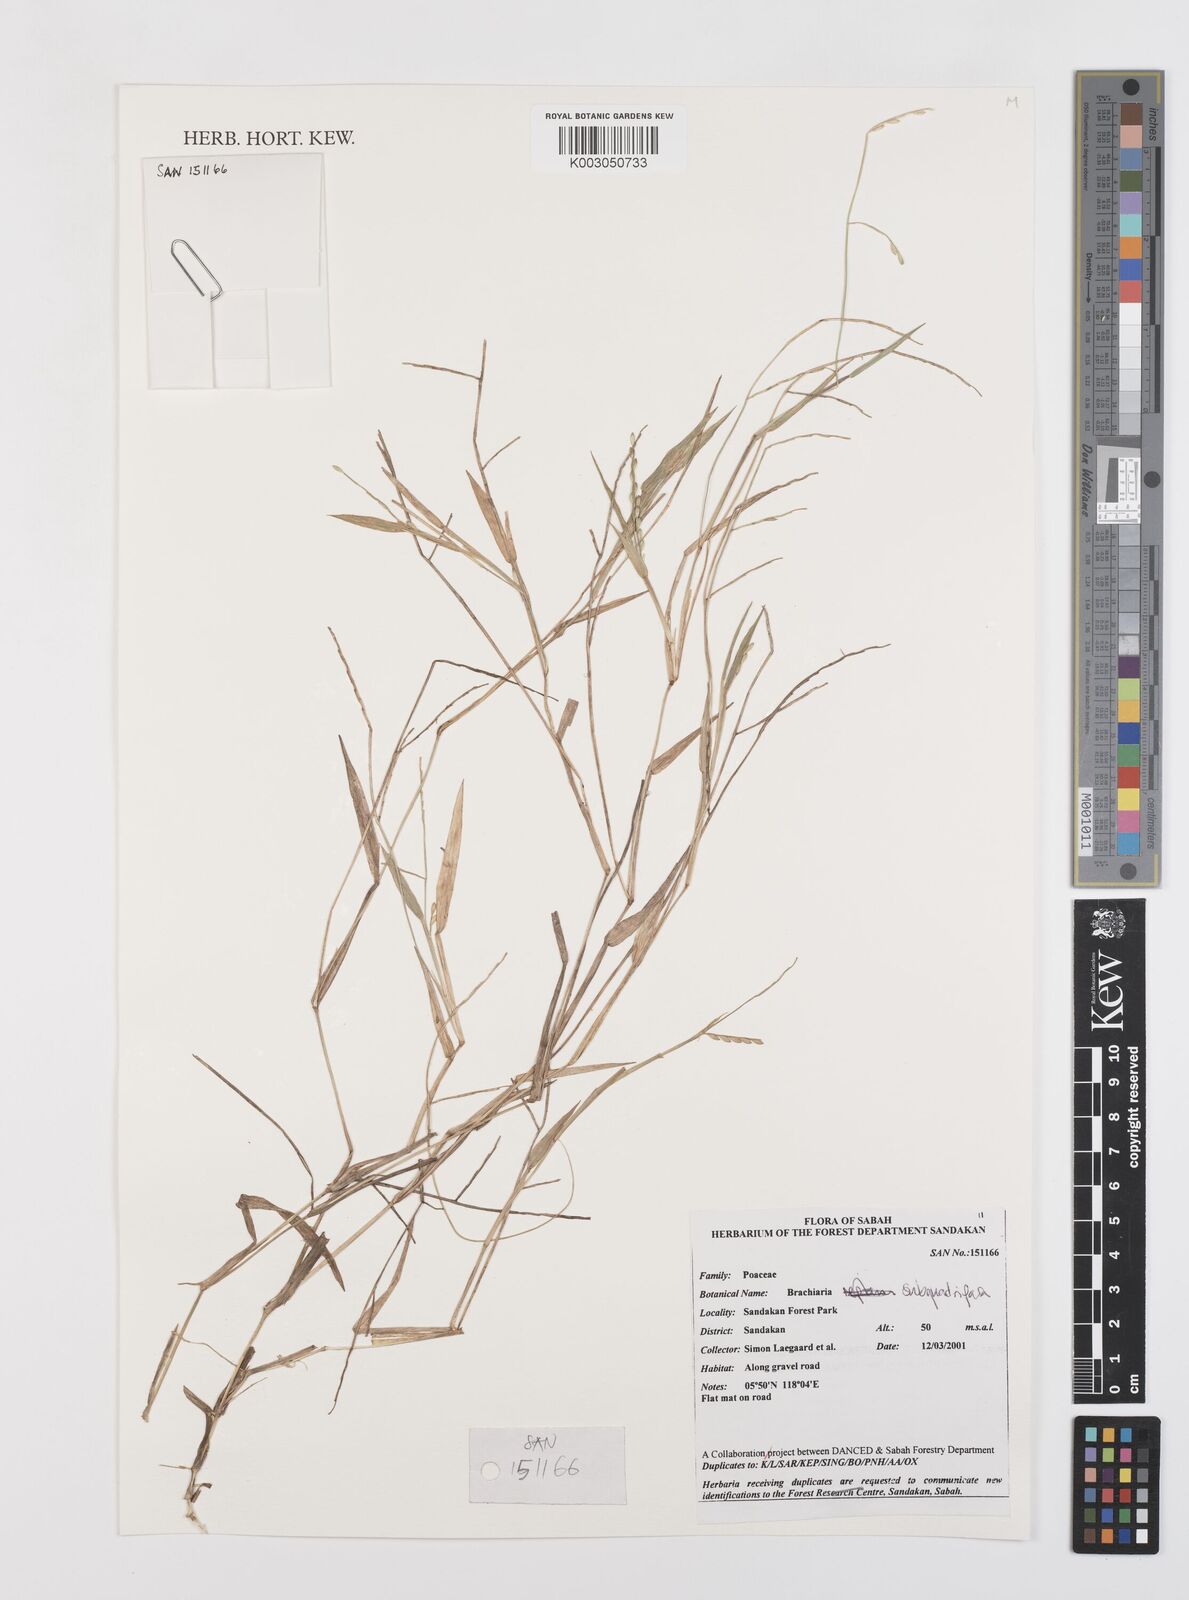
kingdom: Plantae
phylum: Tracheophyta
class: Liliopsida
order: Poales
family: Poaceae
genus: Urochloa
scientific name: Urochloa subquadripara
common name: Armgrass millet
